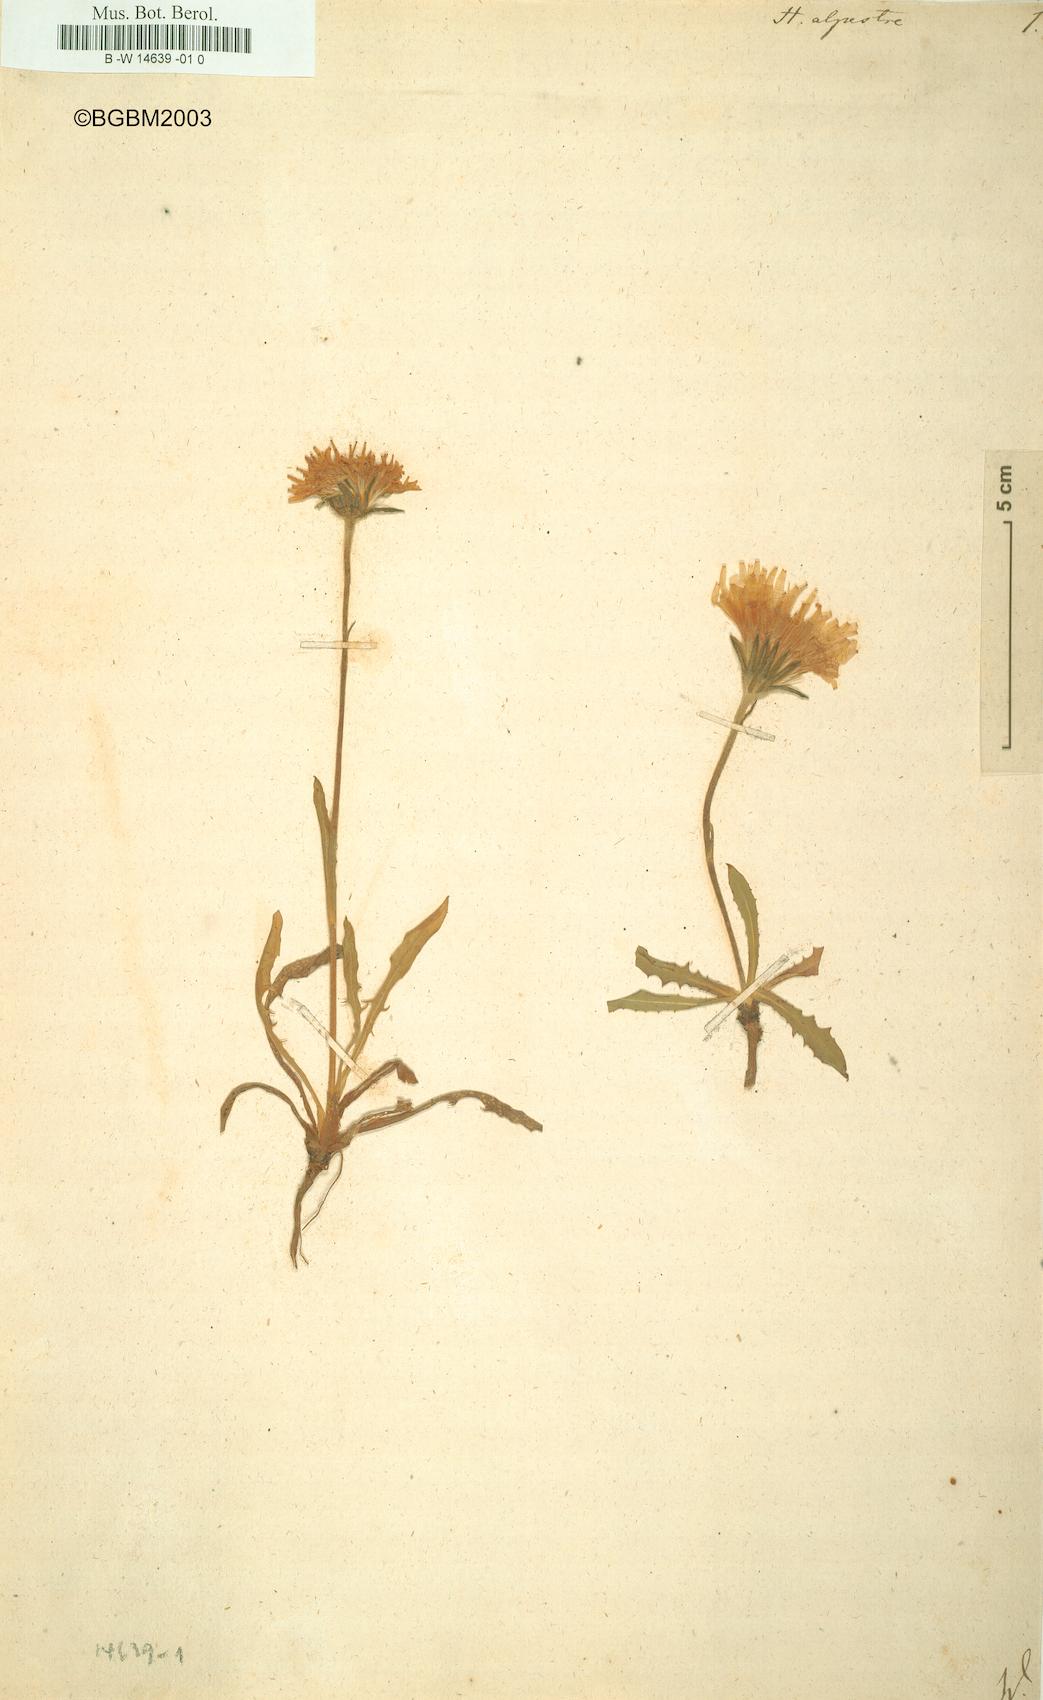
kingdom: Plantae
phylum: Tracheophyta
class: Magnoliopsida
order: Asterales
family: Asteraceae
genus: Hieracium
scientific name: Hieracium alpestre
